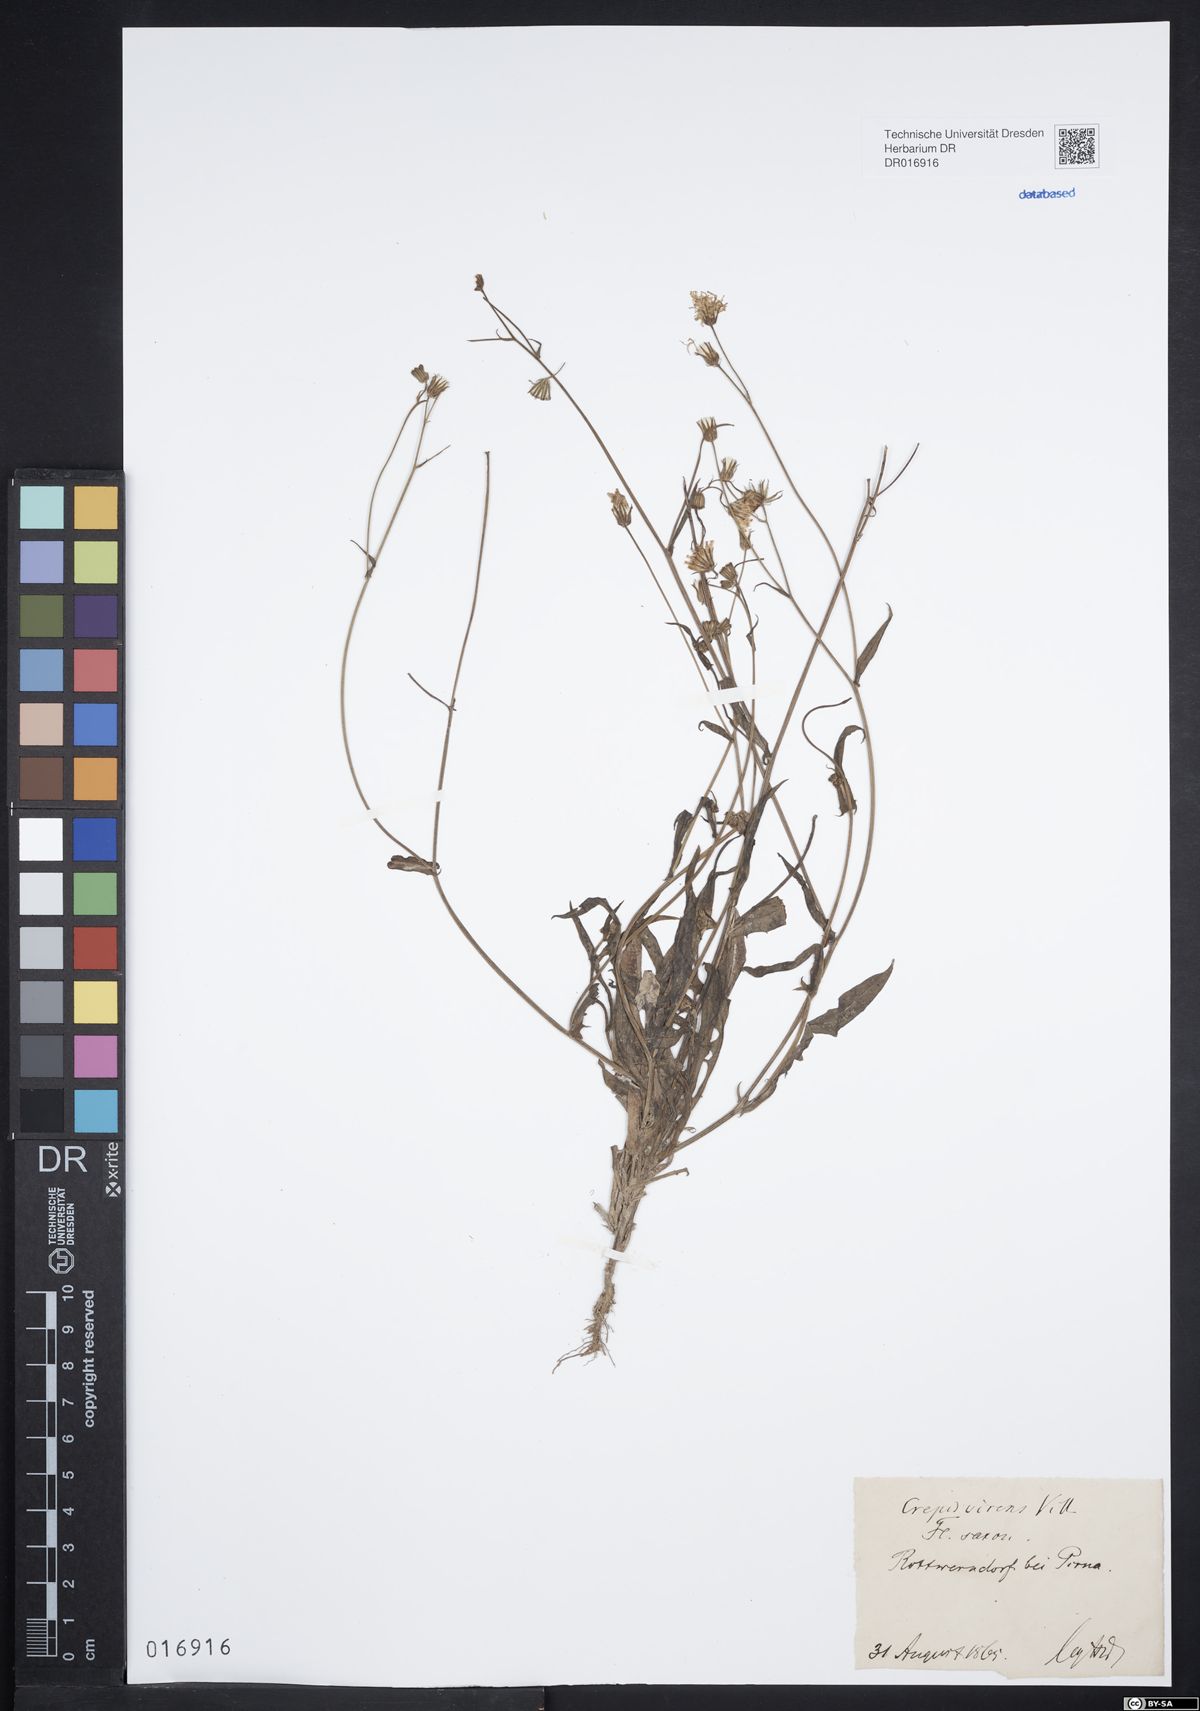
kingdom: Plantae
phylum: Tracheophyta
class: Magnoliopsida
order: Asterales
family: Asteraceae
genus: Crepis
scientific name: Crepis capillaris
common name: Smooth hawksbeard
